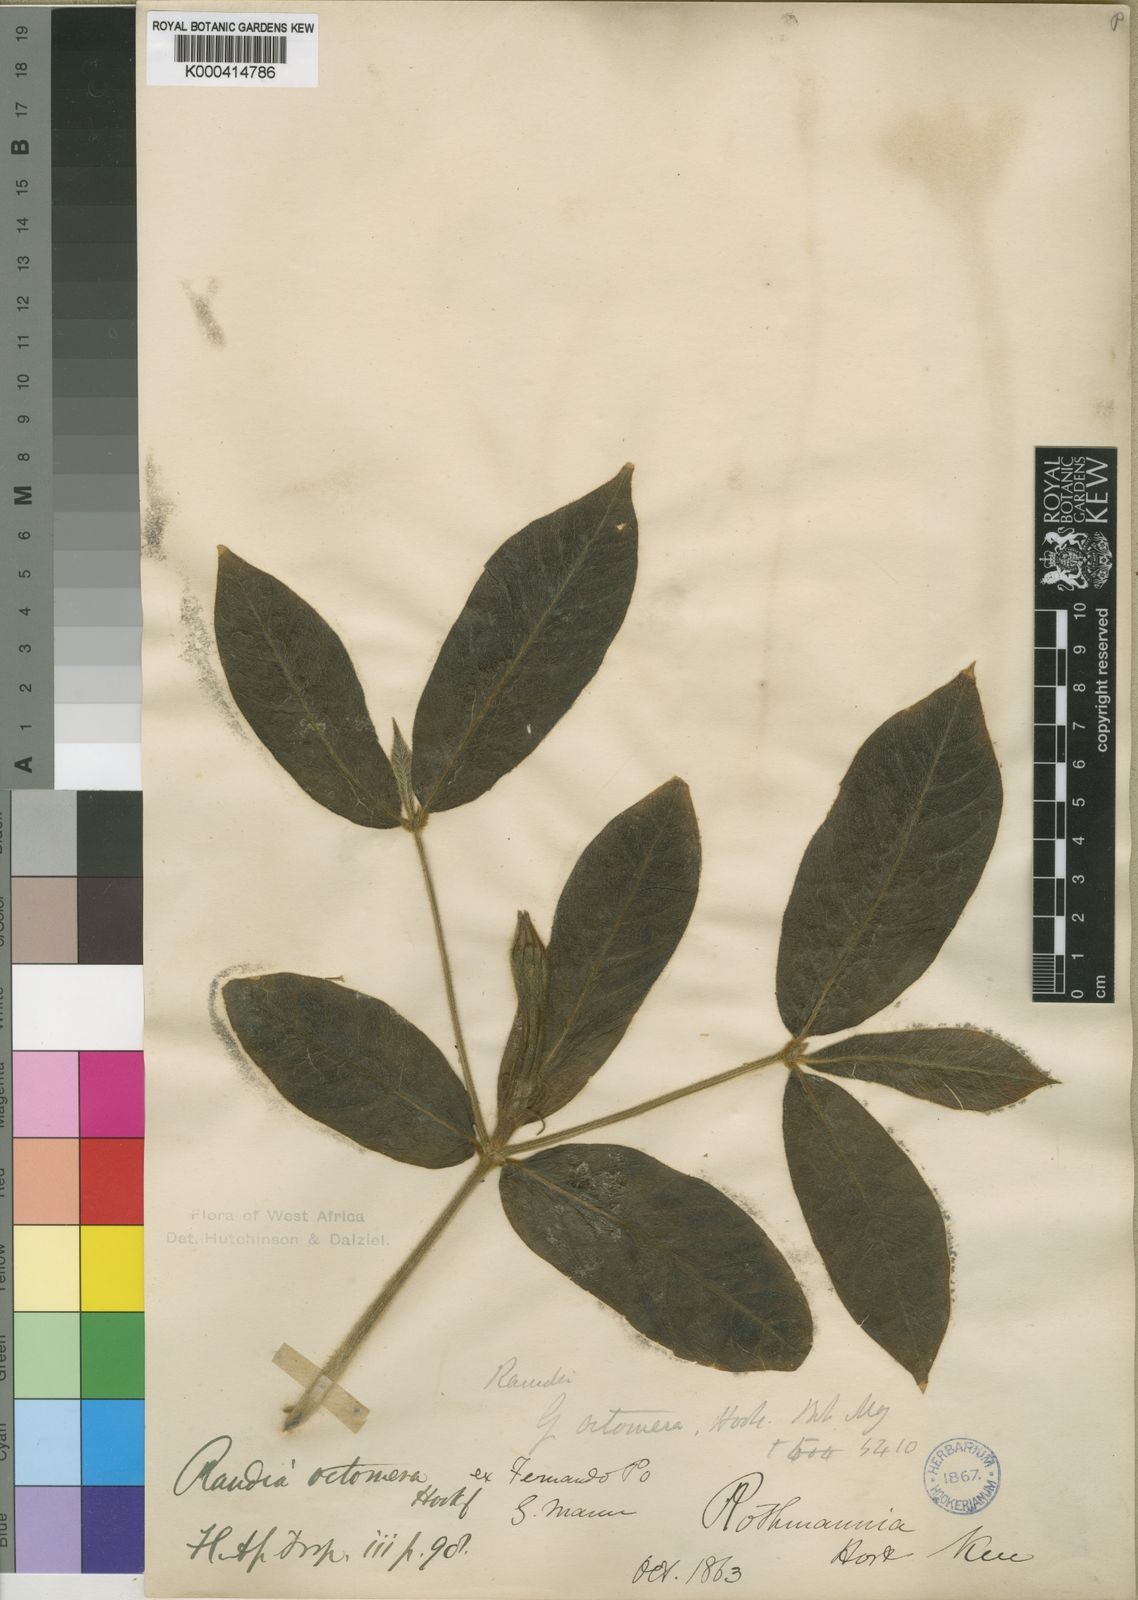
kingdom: Plantae
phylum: Tracheophyta
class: Magnoliopsida
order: Gentianales
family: Rubiaceae
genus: Rothmannia
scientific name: Rothmannia octomera
